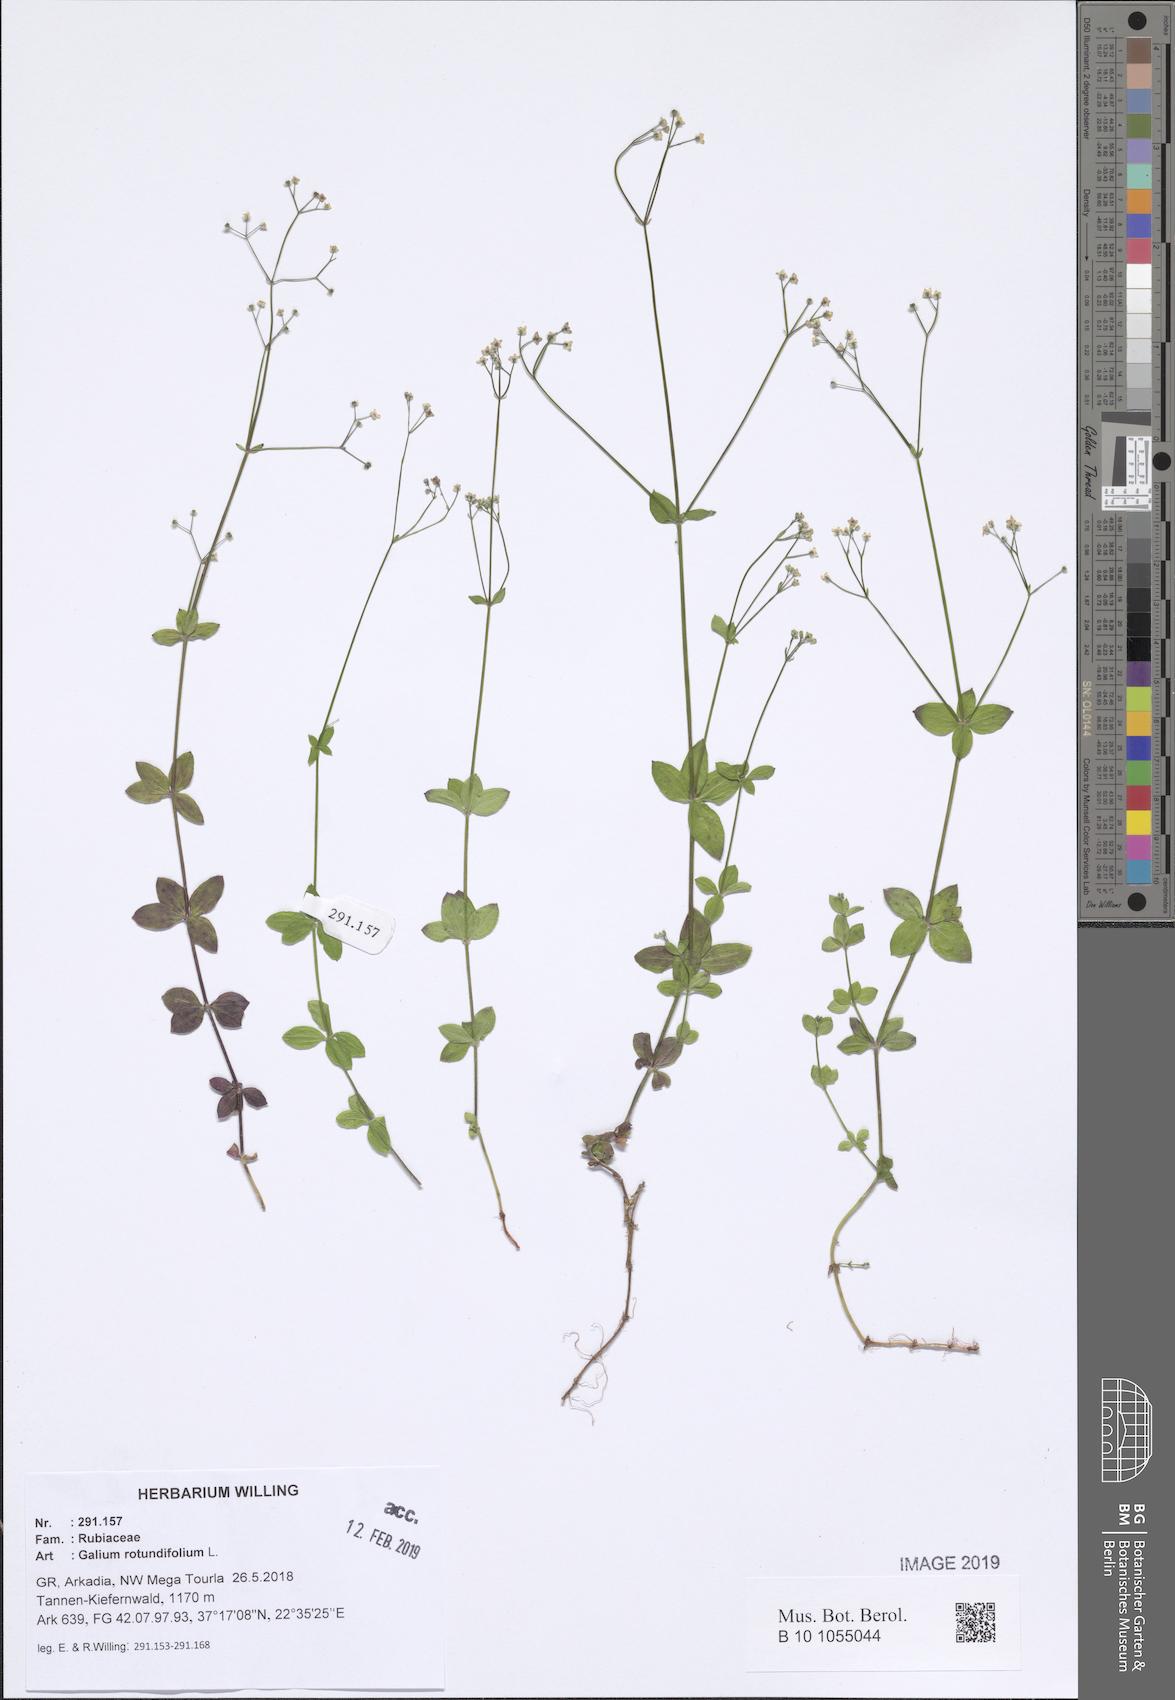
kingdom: Plantae
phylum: Tracheophyta
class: Magnoliopsida
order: Gentianales
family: Rubiaceae
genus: Galium
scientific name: Galium rotundifolium
